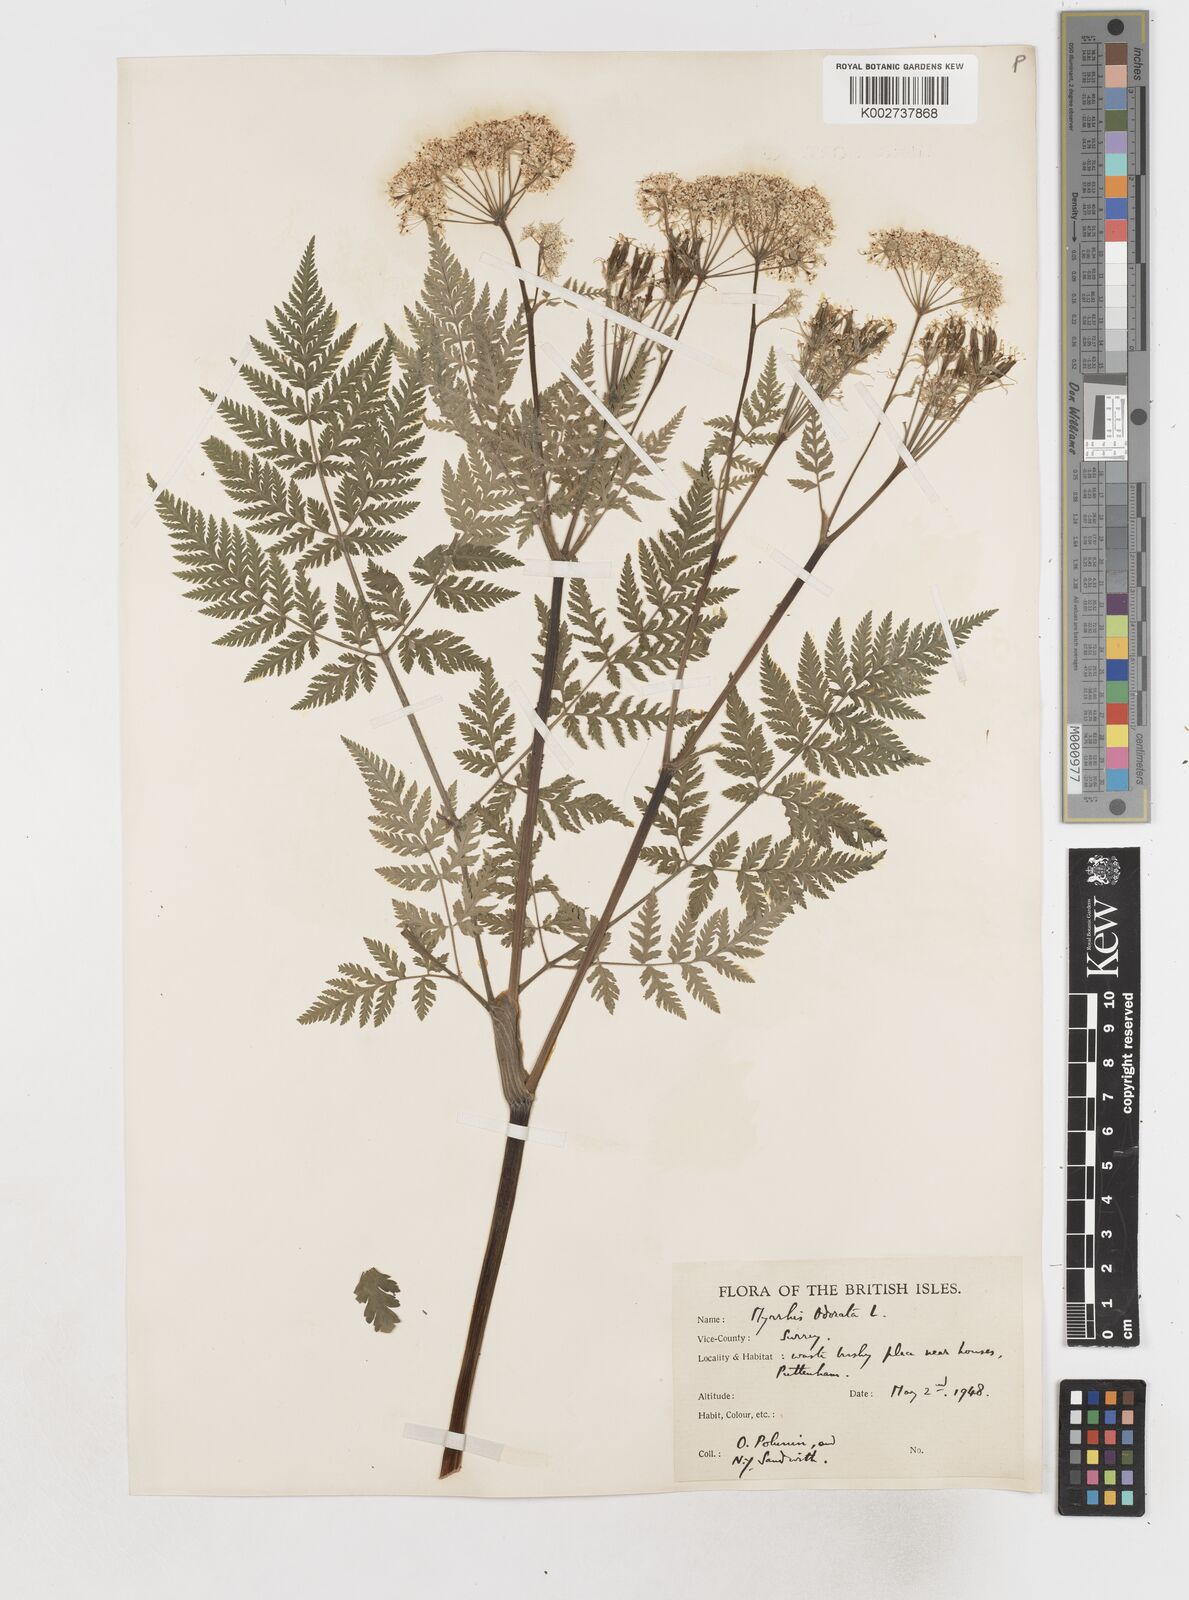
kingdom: Plantae
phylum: Tracheophyta
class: Magnoliopsida
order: Apiales
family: Apiaceae
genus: Myrrhis
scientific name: Myrrhis odorata
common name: Sweet cicely
